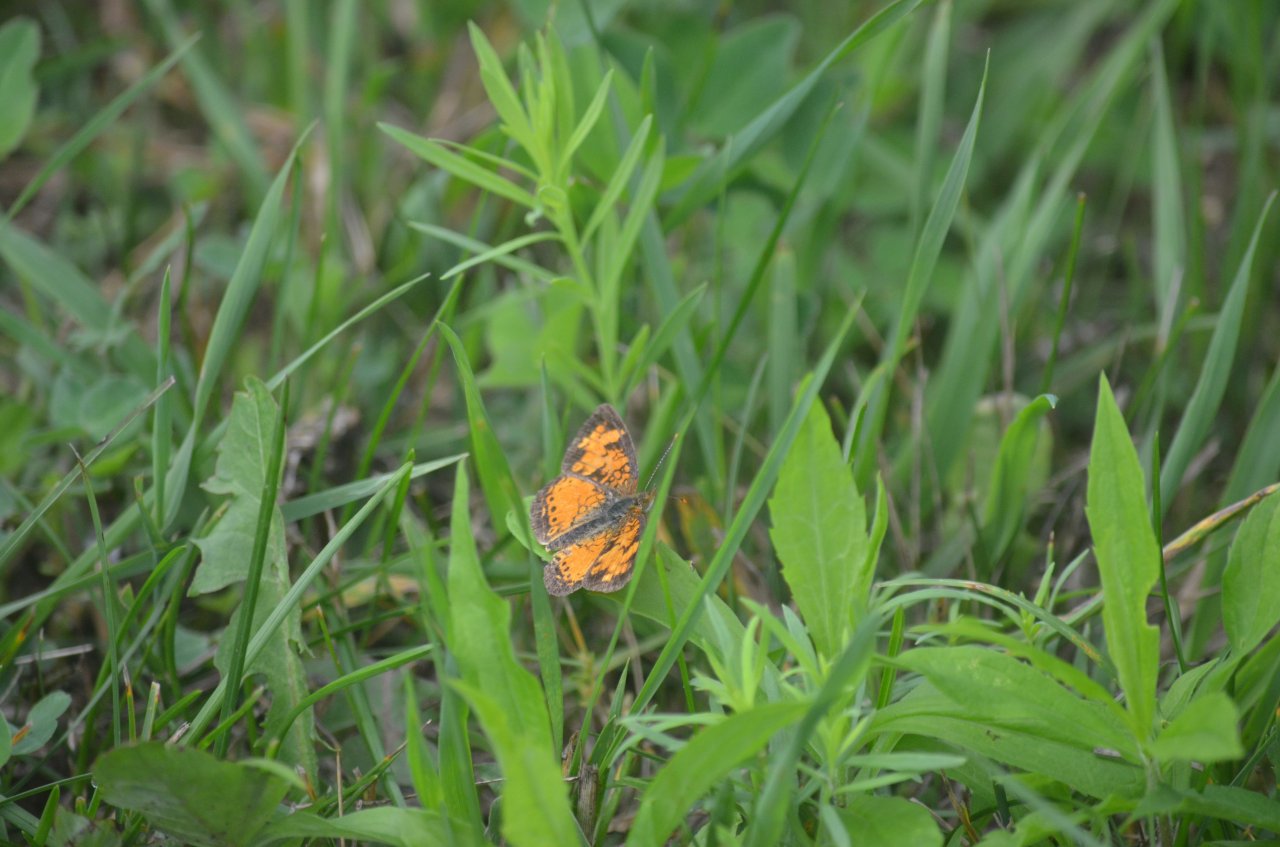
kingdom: Animalia
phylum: Arthropoda
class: Insecta
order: Lepidoptera
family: Nymphalidae
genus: Phyciodes
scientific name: Phyciodes tharos
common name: Northern Crescent
